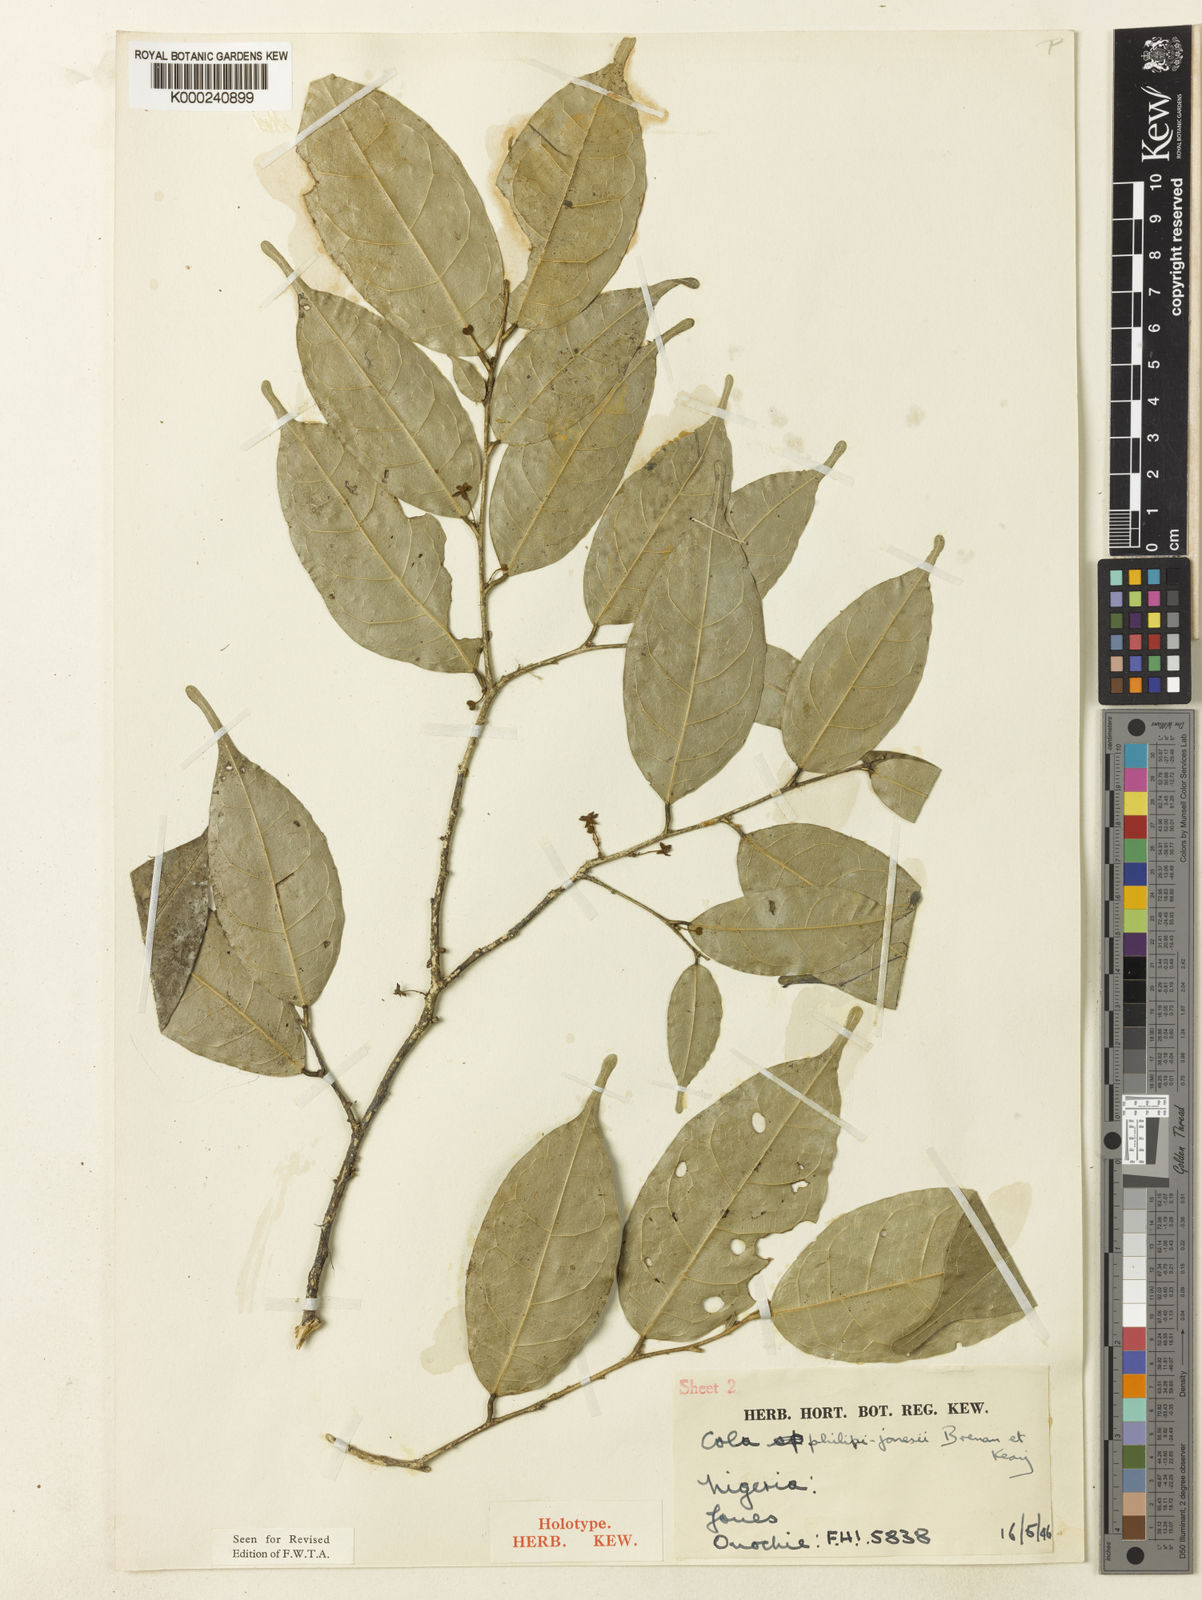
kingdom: Plantae
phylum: Tracheophyta
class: Magnoliopsida
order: Malvales
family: Malvaceae
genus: Cola
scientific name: Cola philipi-jonesii
